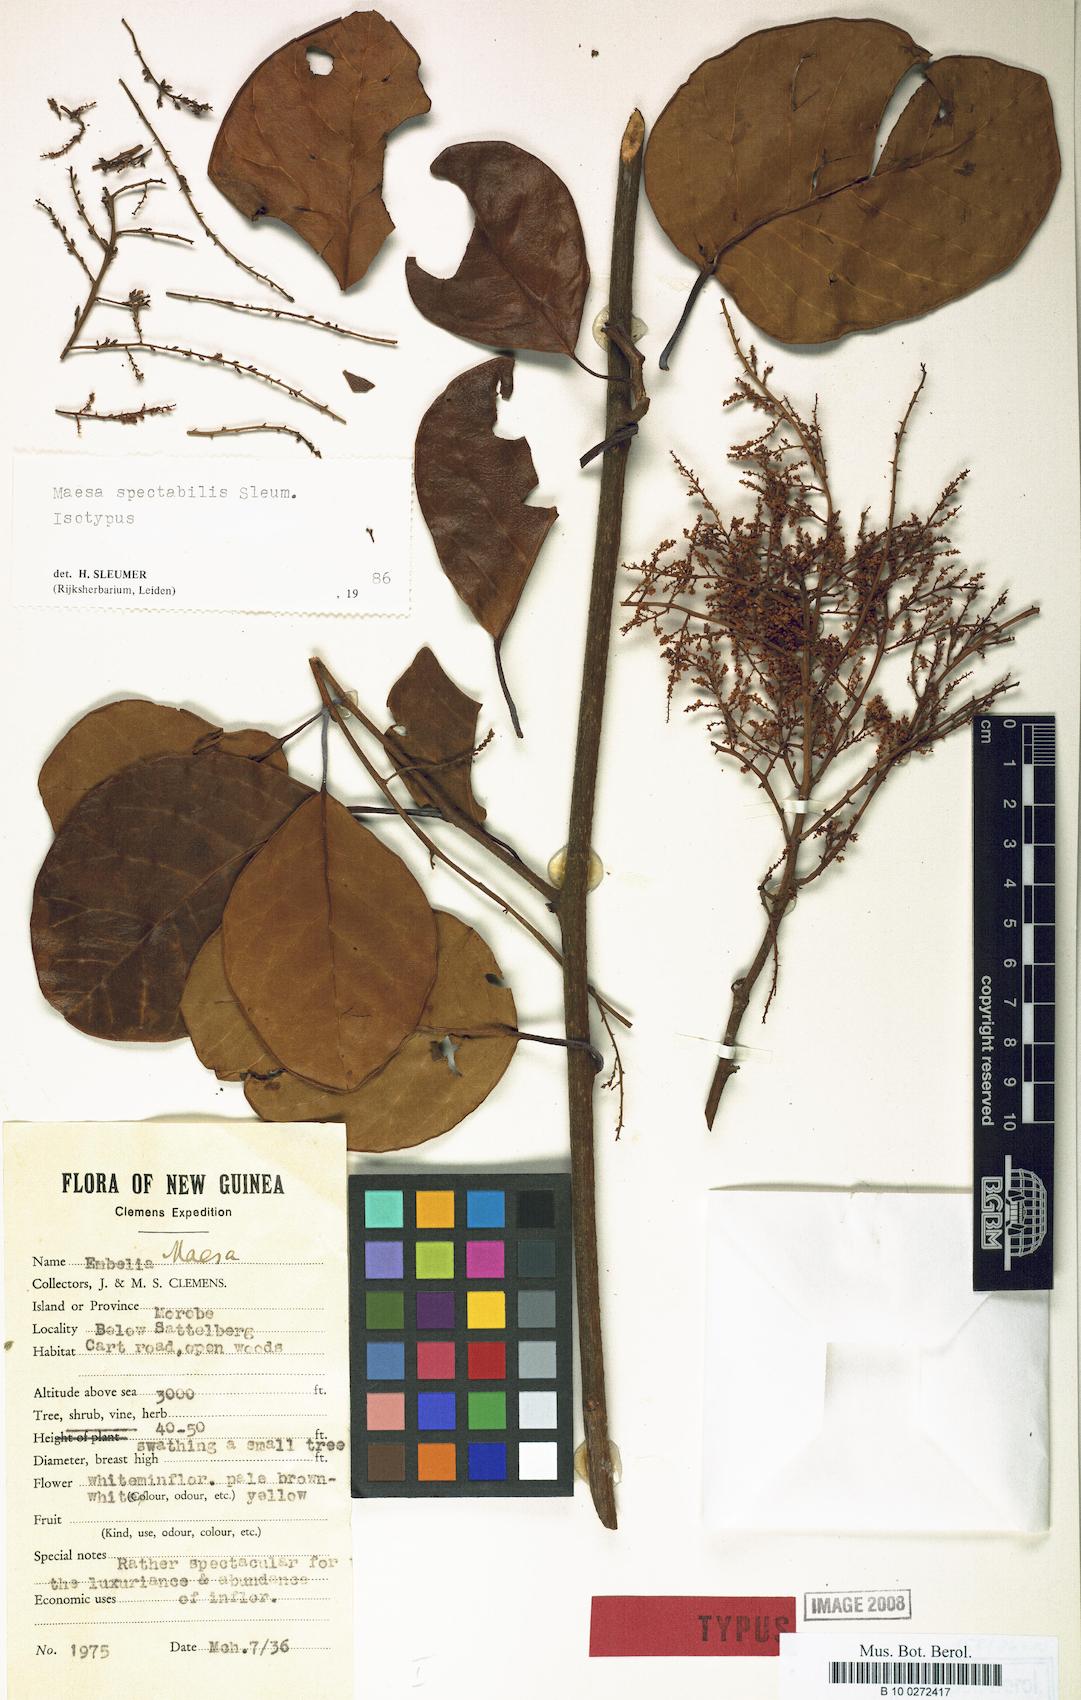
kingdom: Plantae
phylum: Tracheophyta
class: Magnoliopsida
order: Ericales
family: Primulaceae
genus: Maesa
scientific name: Maesa spectabilis
